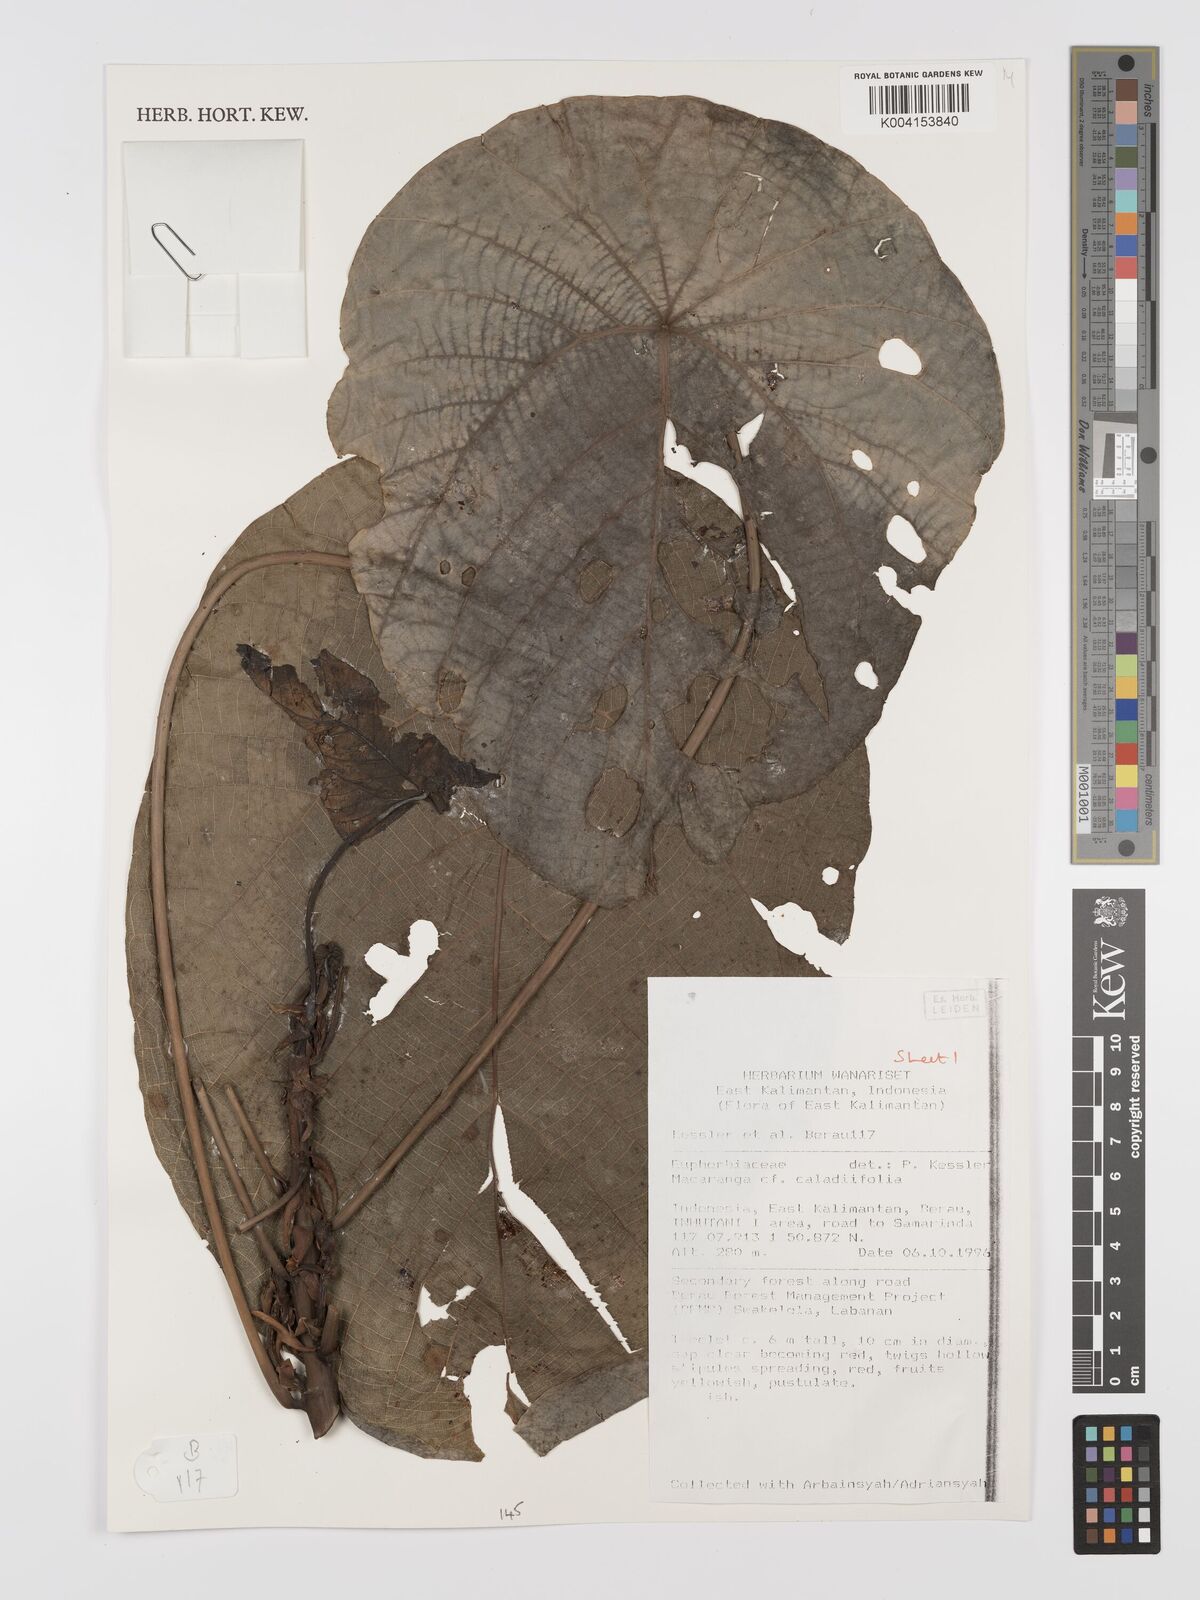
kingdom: Plantae
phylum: Tracheophyta
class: Magnoliopsida
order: Malpighiales
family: Euphorbiaceae
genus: Macaranga
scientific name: Macaranga caladiifolia
